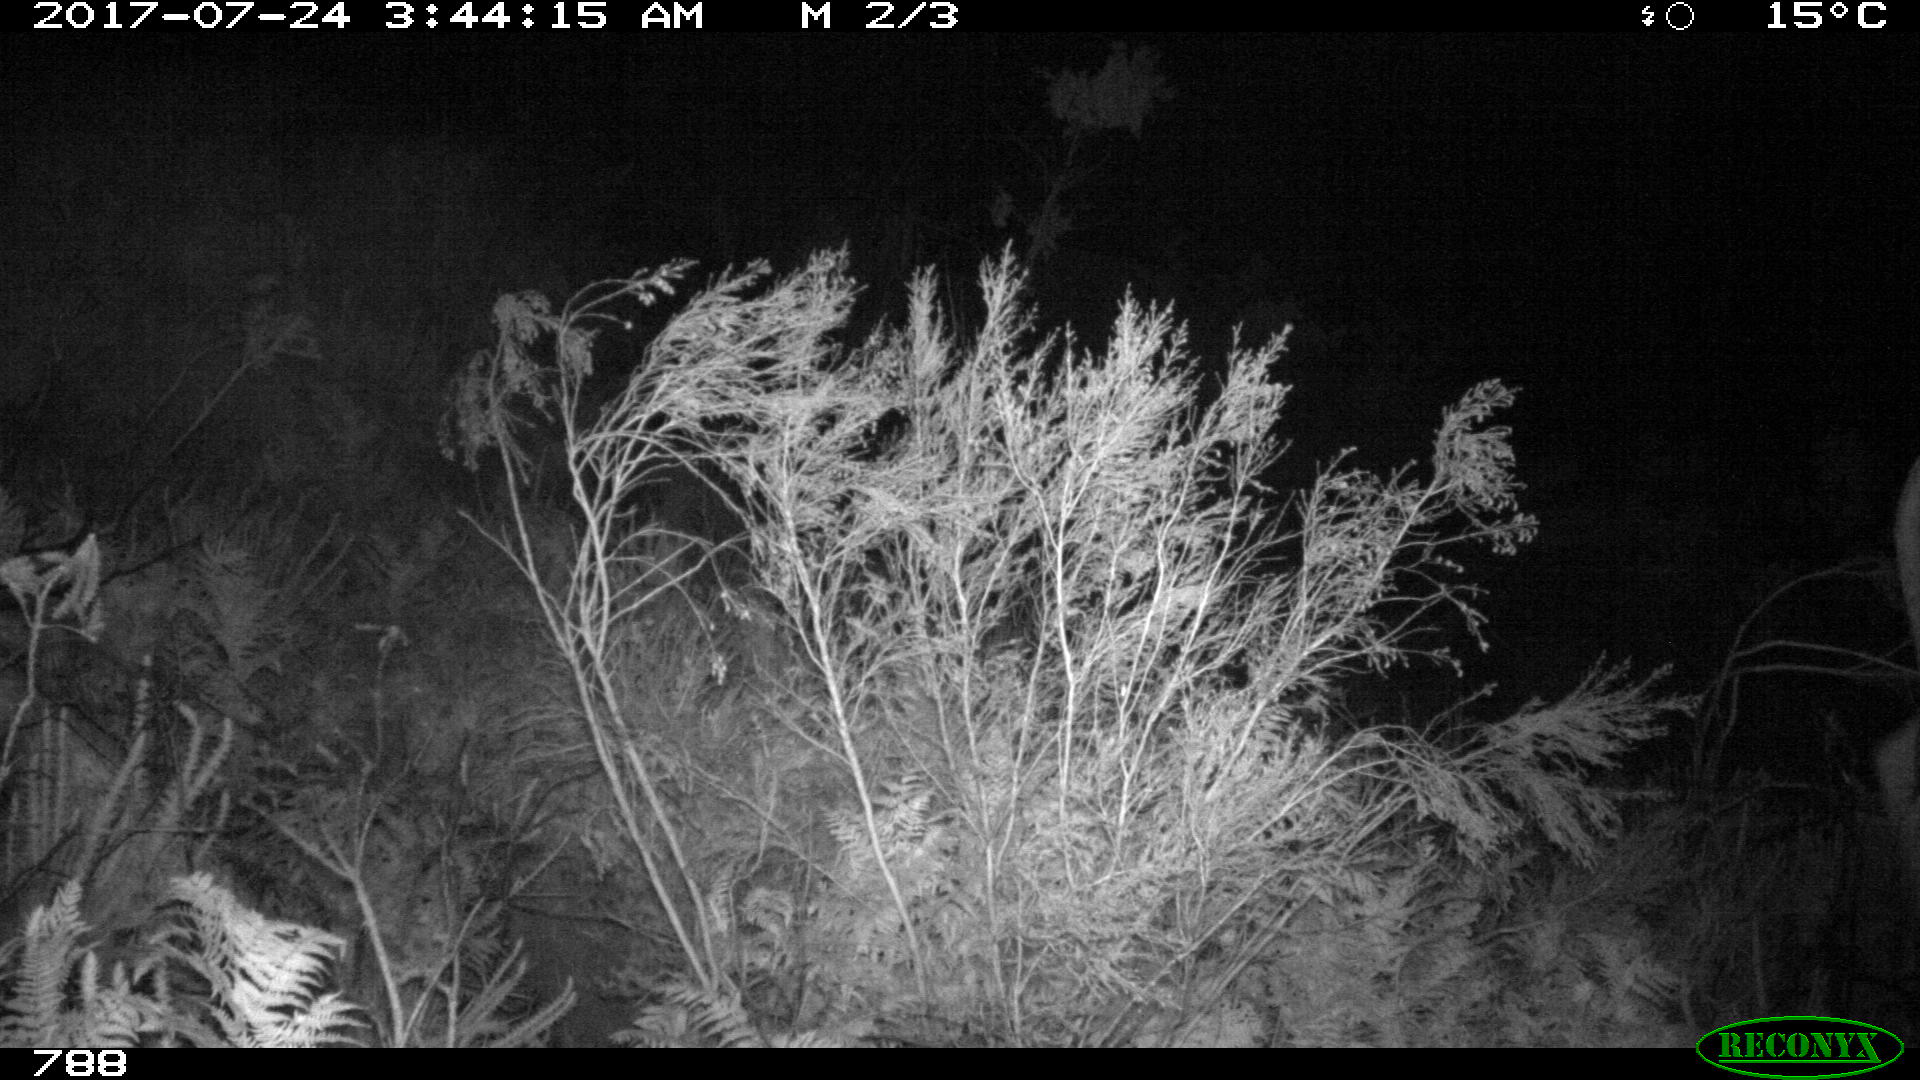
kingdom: Animalia
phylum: Chordata
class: Mammalia
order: Artiodactyla
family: Bovidae
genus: Bos
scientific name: Bos taurus
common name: Domesticated cattle
